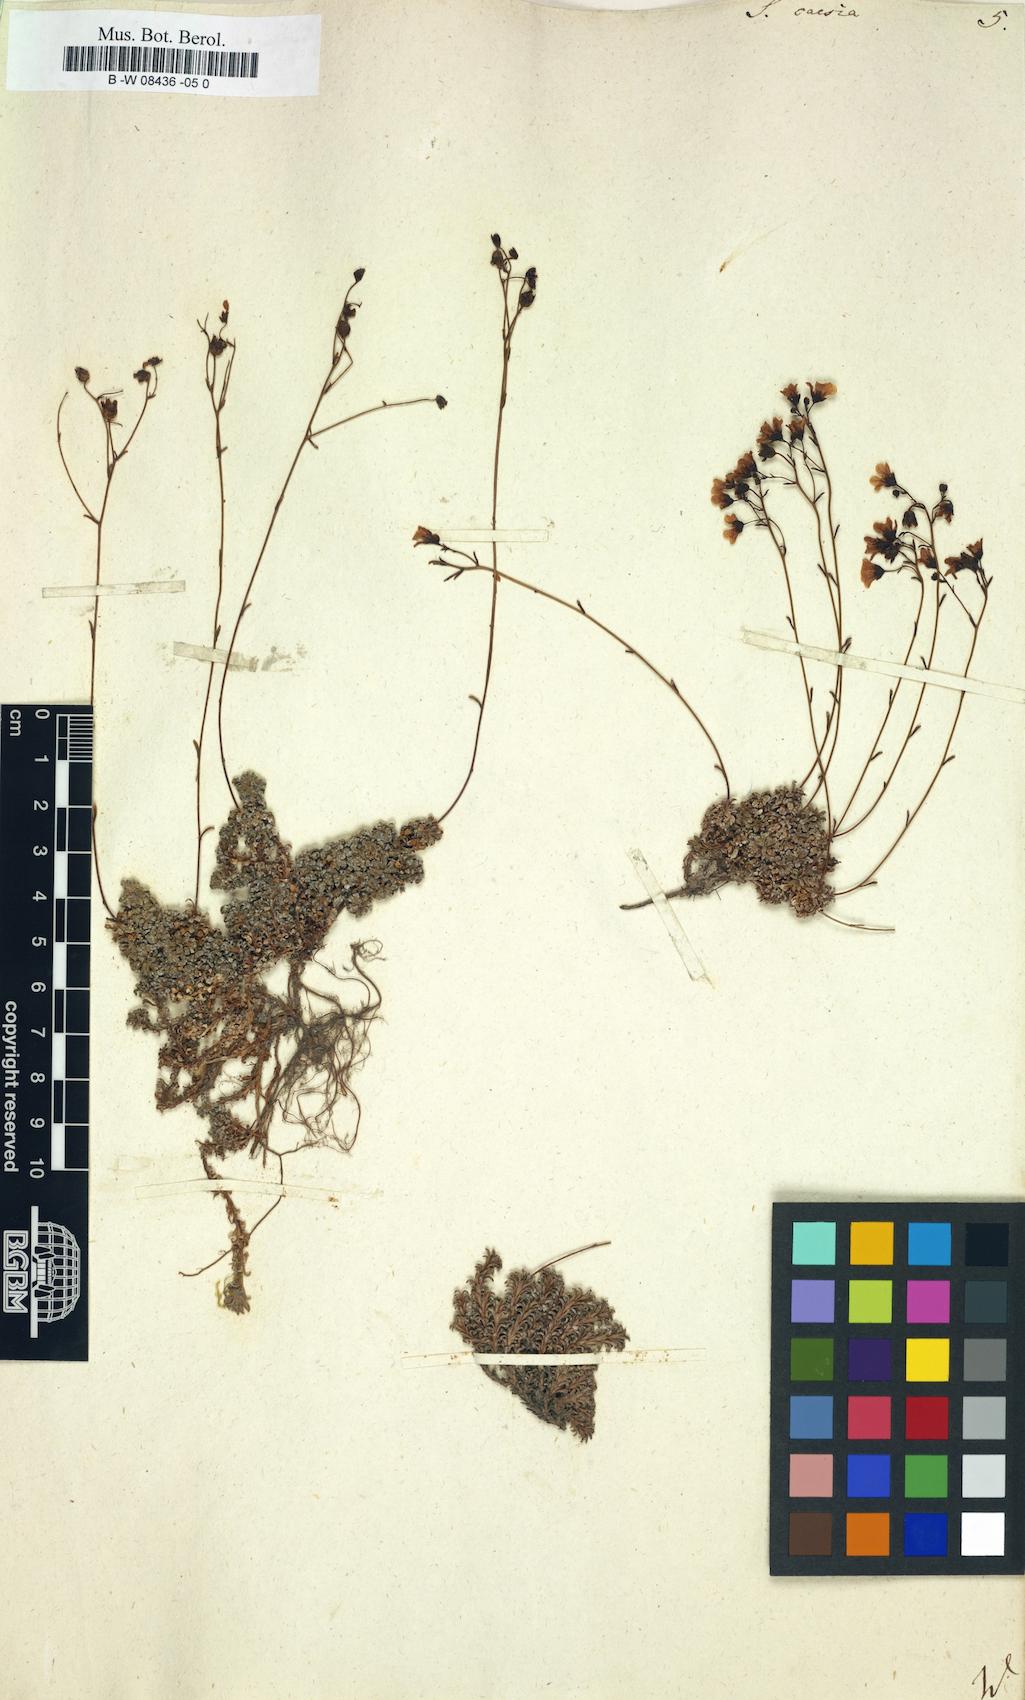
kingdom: Plantae
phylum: Tracheophyta
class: Magnoliopsida
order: Saxifragales
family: Saxifragaceae
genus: Saxifraga
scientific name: Saxifraga caesia
